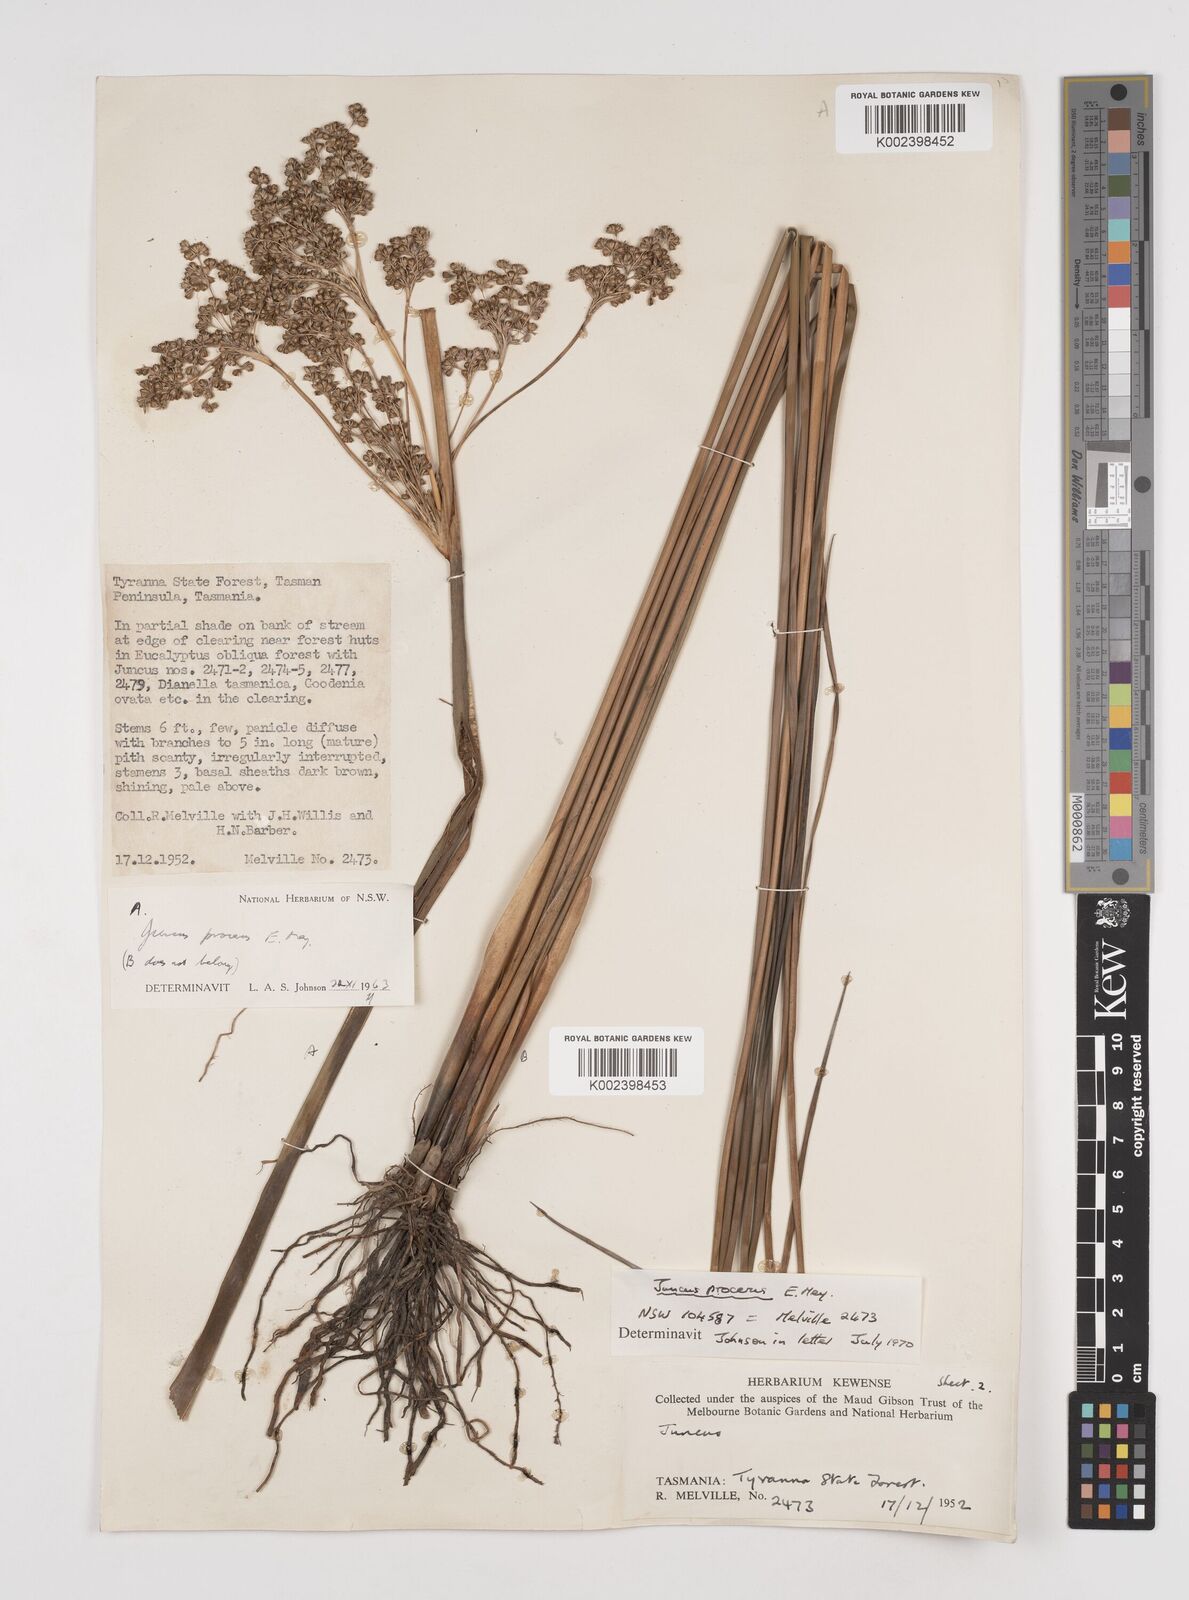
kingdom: Plantae
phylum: Tracheophyta
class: Liliopsida
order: Poales
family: Juncaceae
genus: Juncus
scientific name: Juncus procerus
